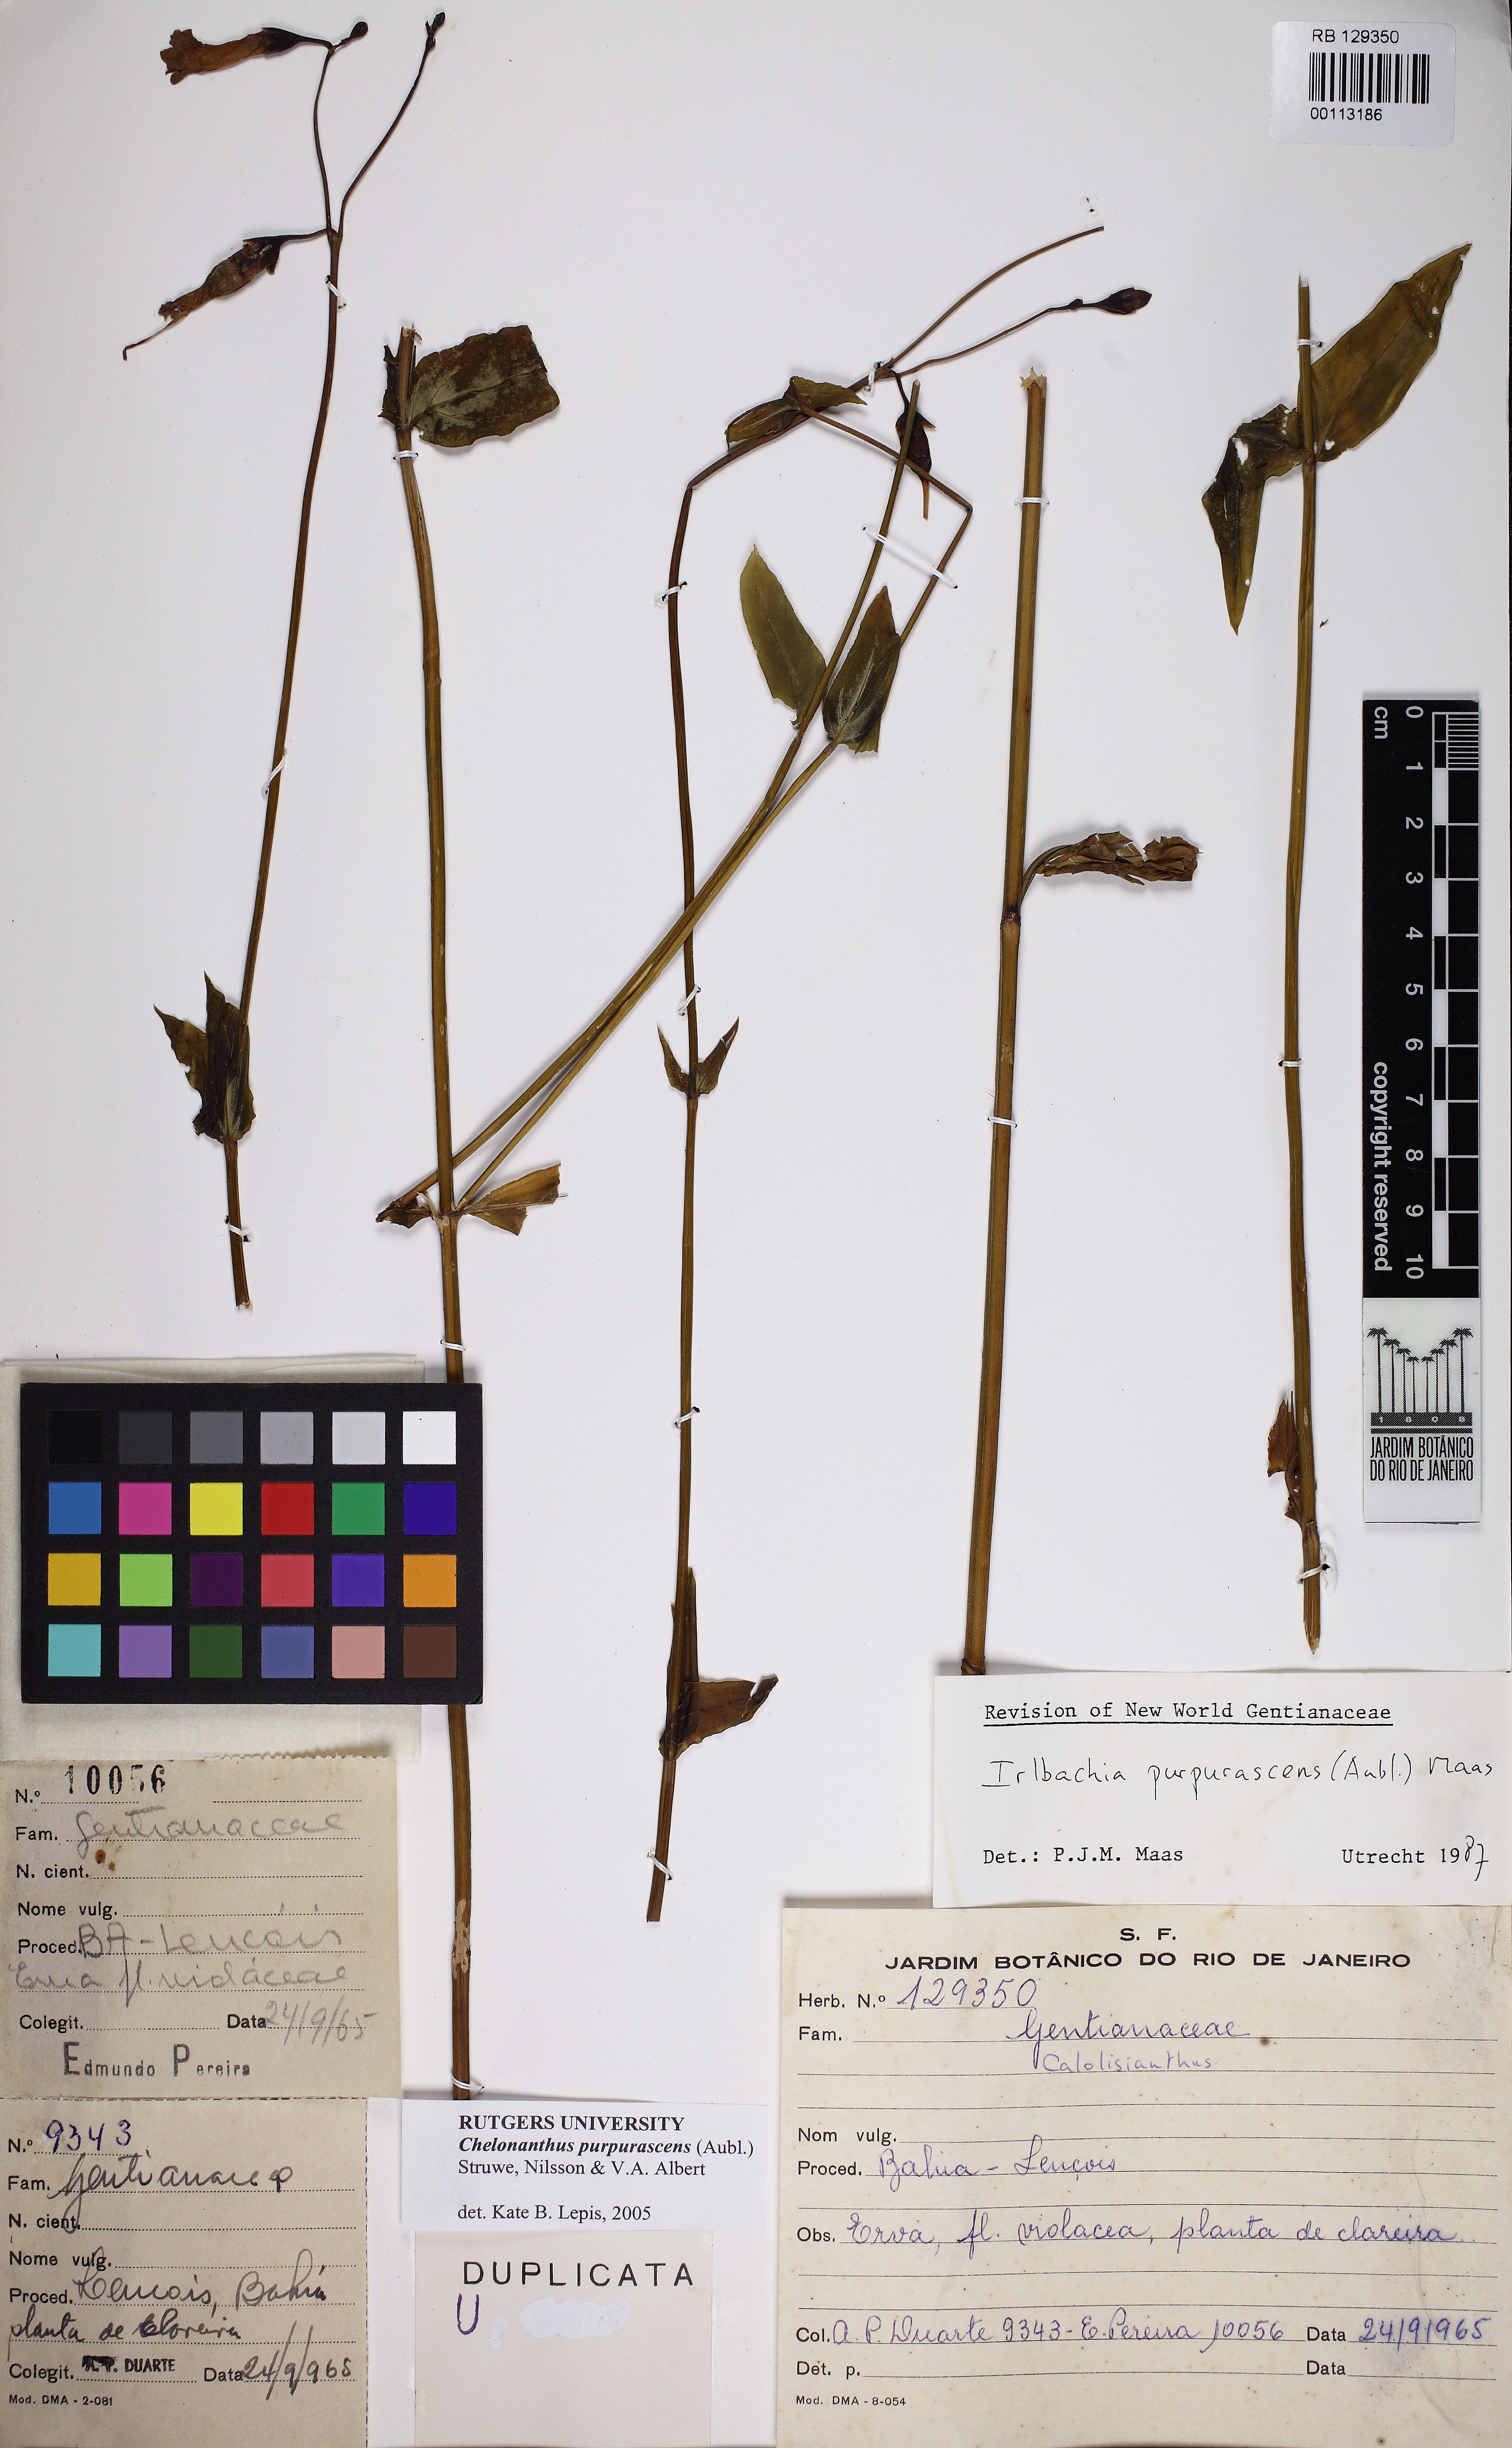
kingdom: Plantae
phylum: Tracheophyta
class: Magnoliopsida
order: Gentianales
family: Gentianaceae
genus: Chelonanthus
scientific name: Chelonanthus purpurascens
